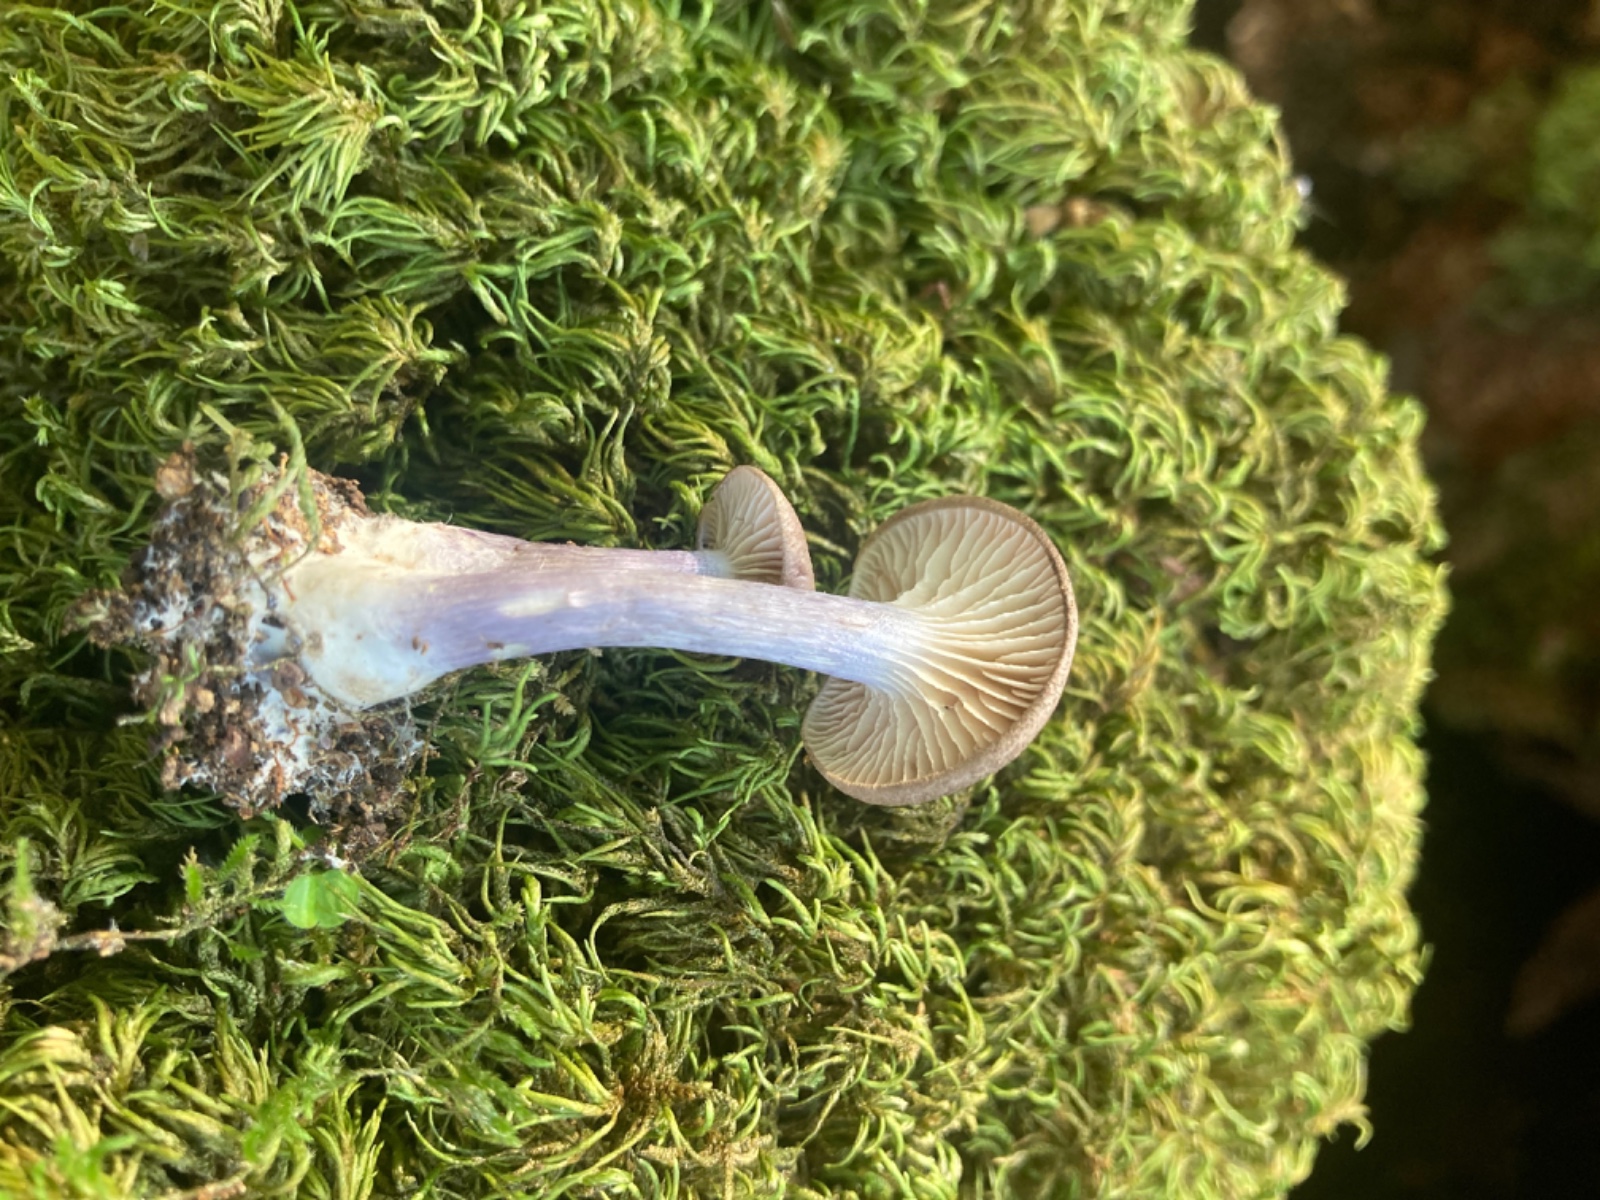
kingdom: Fungi
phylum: Basidiomycota
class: Agaricomycetes
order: Agaricales
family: Entolomataceae
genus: Entoloma
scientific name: Entoloma tjallingiorum
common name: prægtig rødblad
